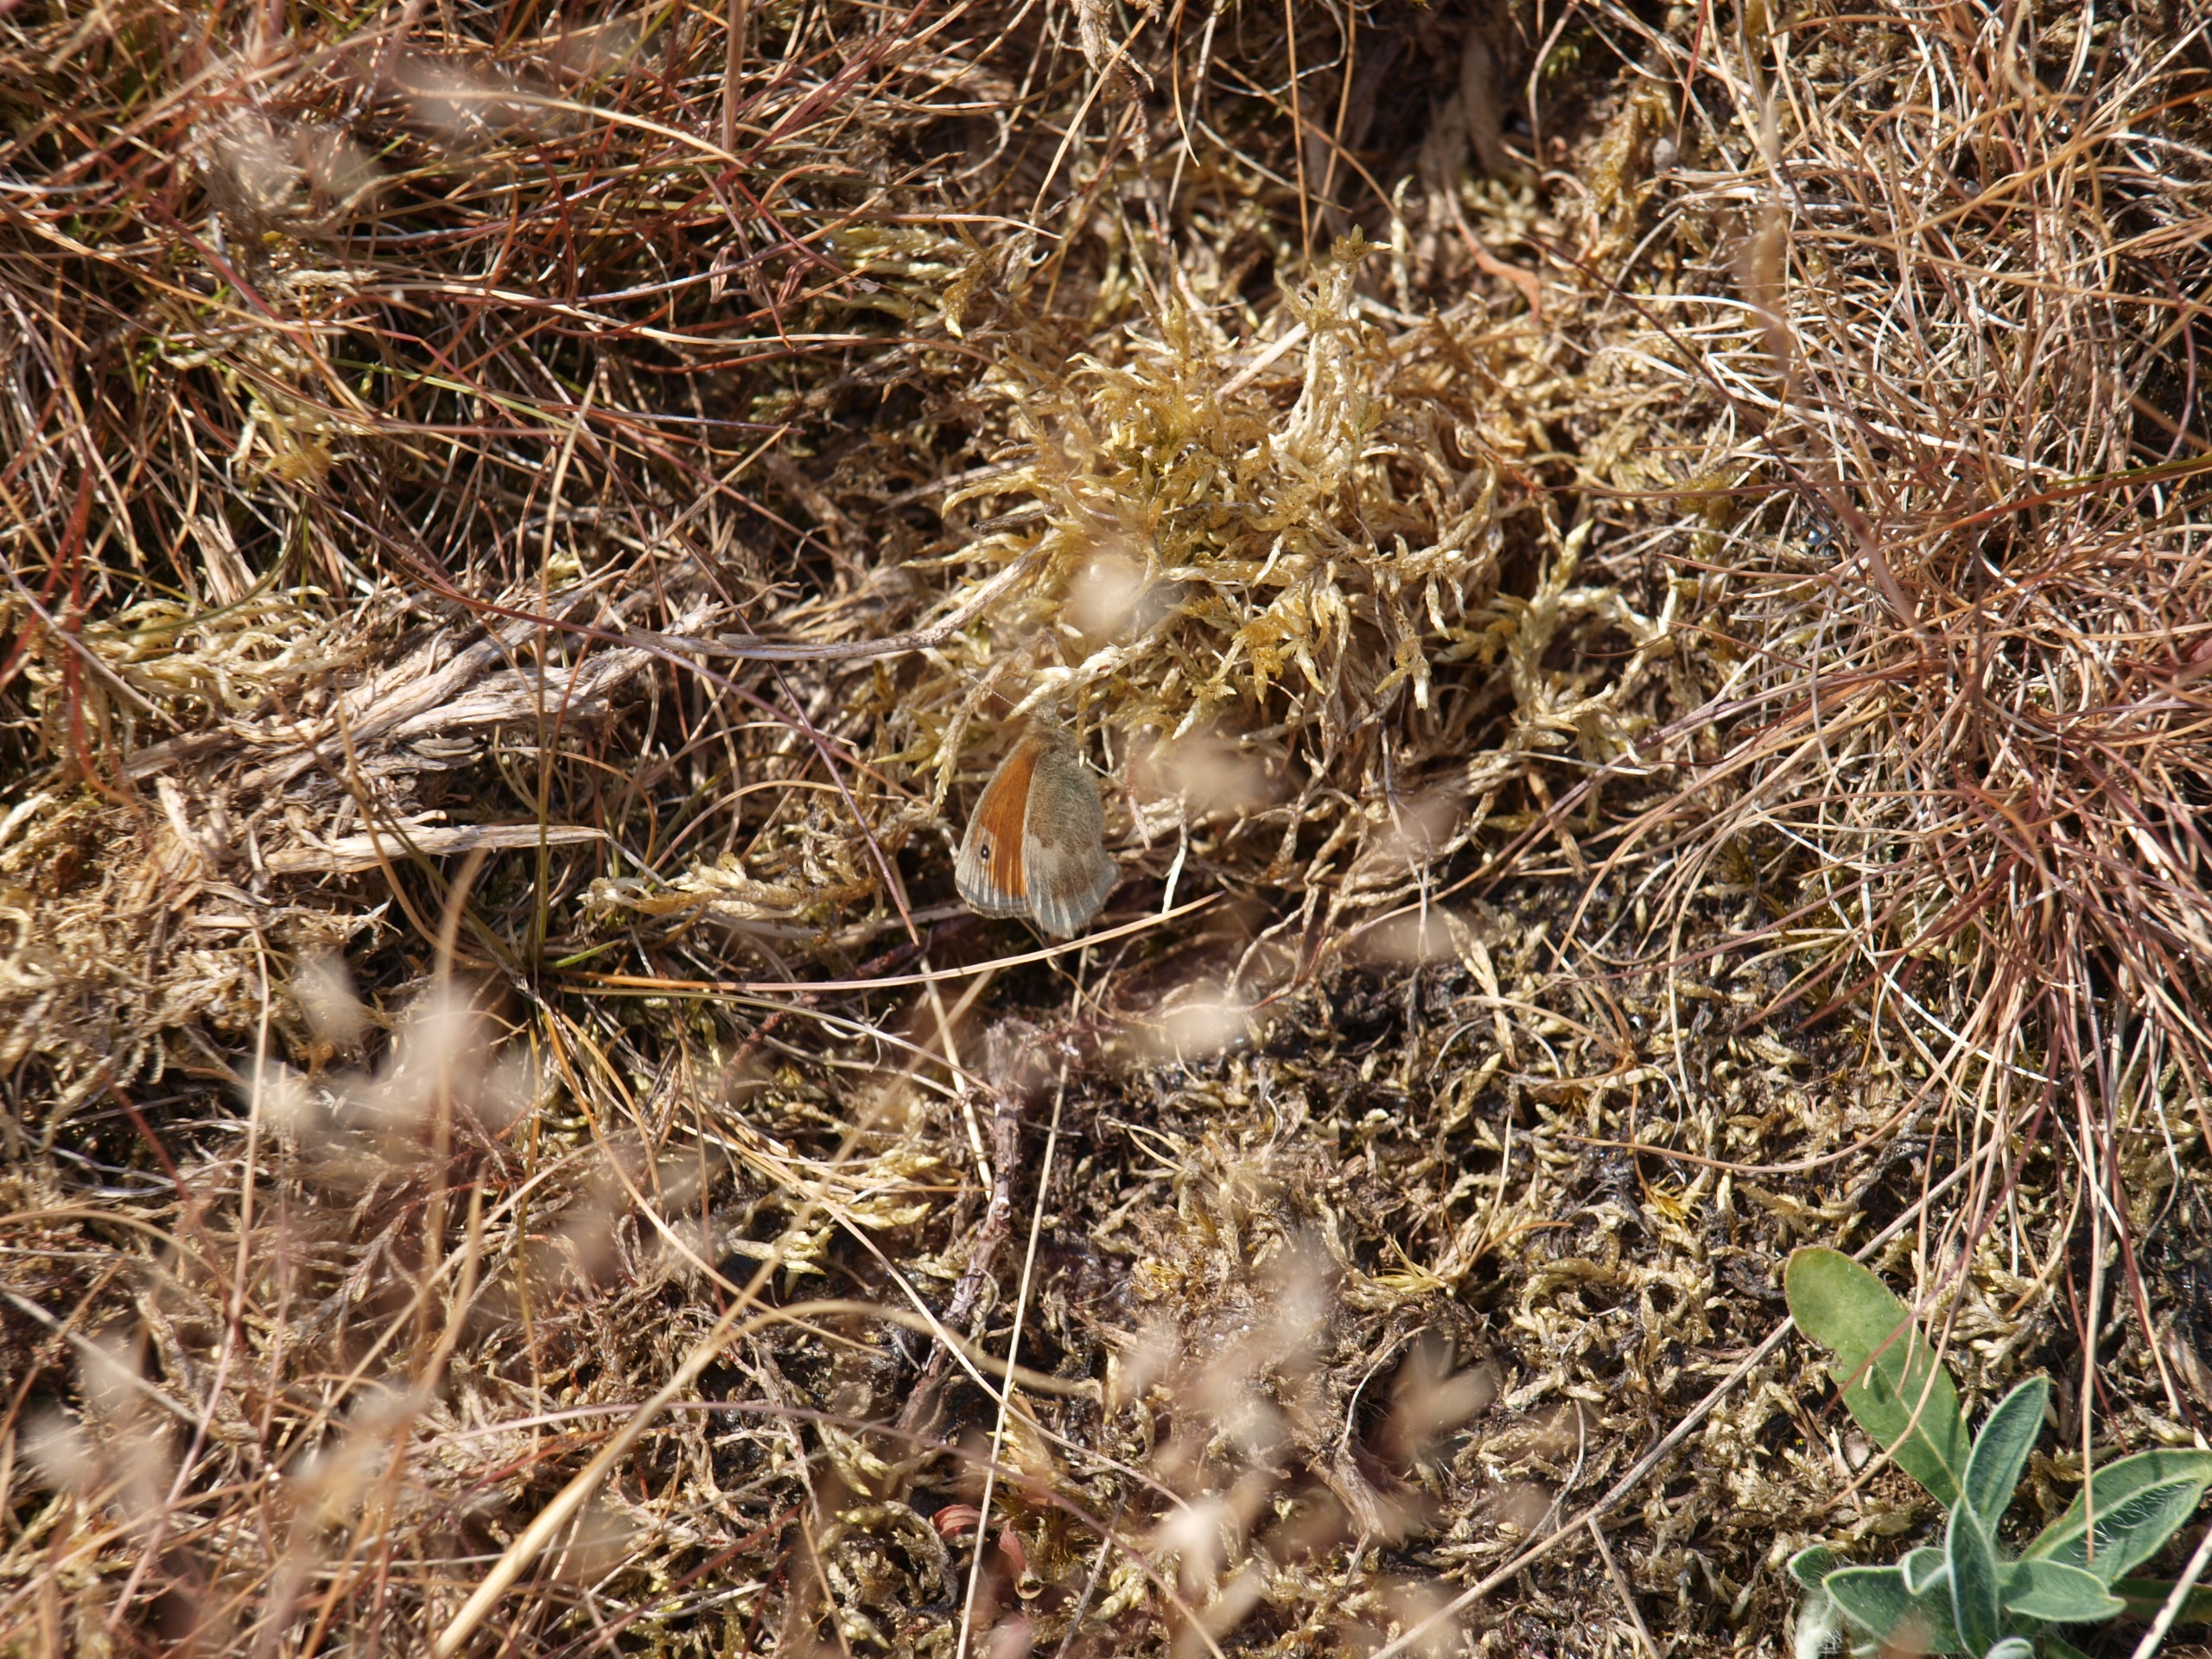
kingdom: Animalia
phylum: Arthropoda
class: Insecta
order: Lepidoptera
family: Nymphalidae
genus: Coenonympha
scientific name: Coenonympha pamphilus
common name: Okkergul randøje
